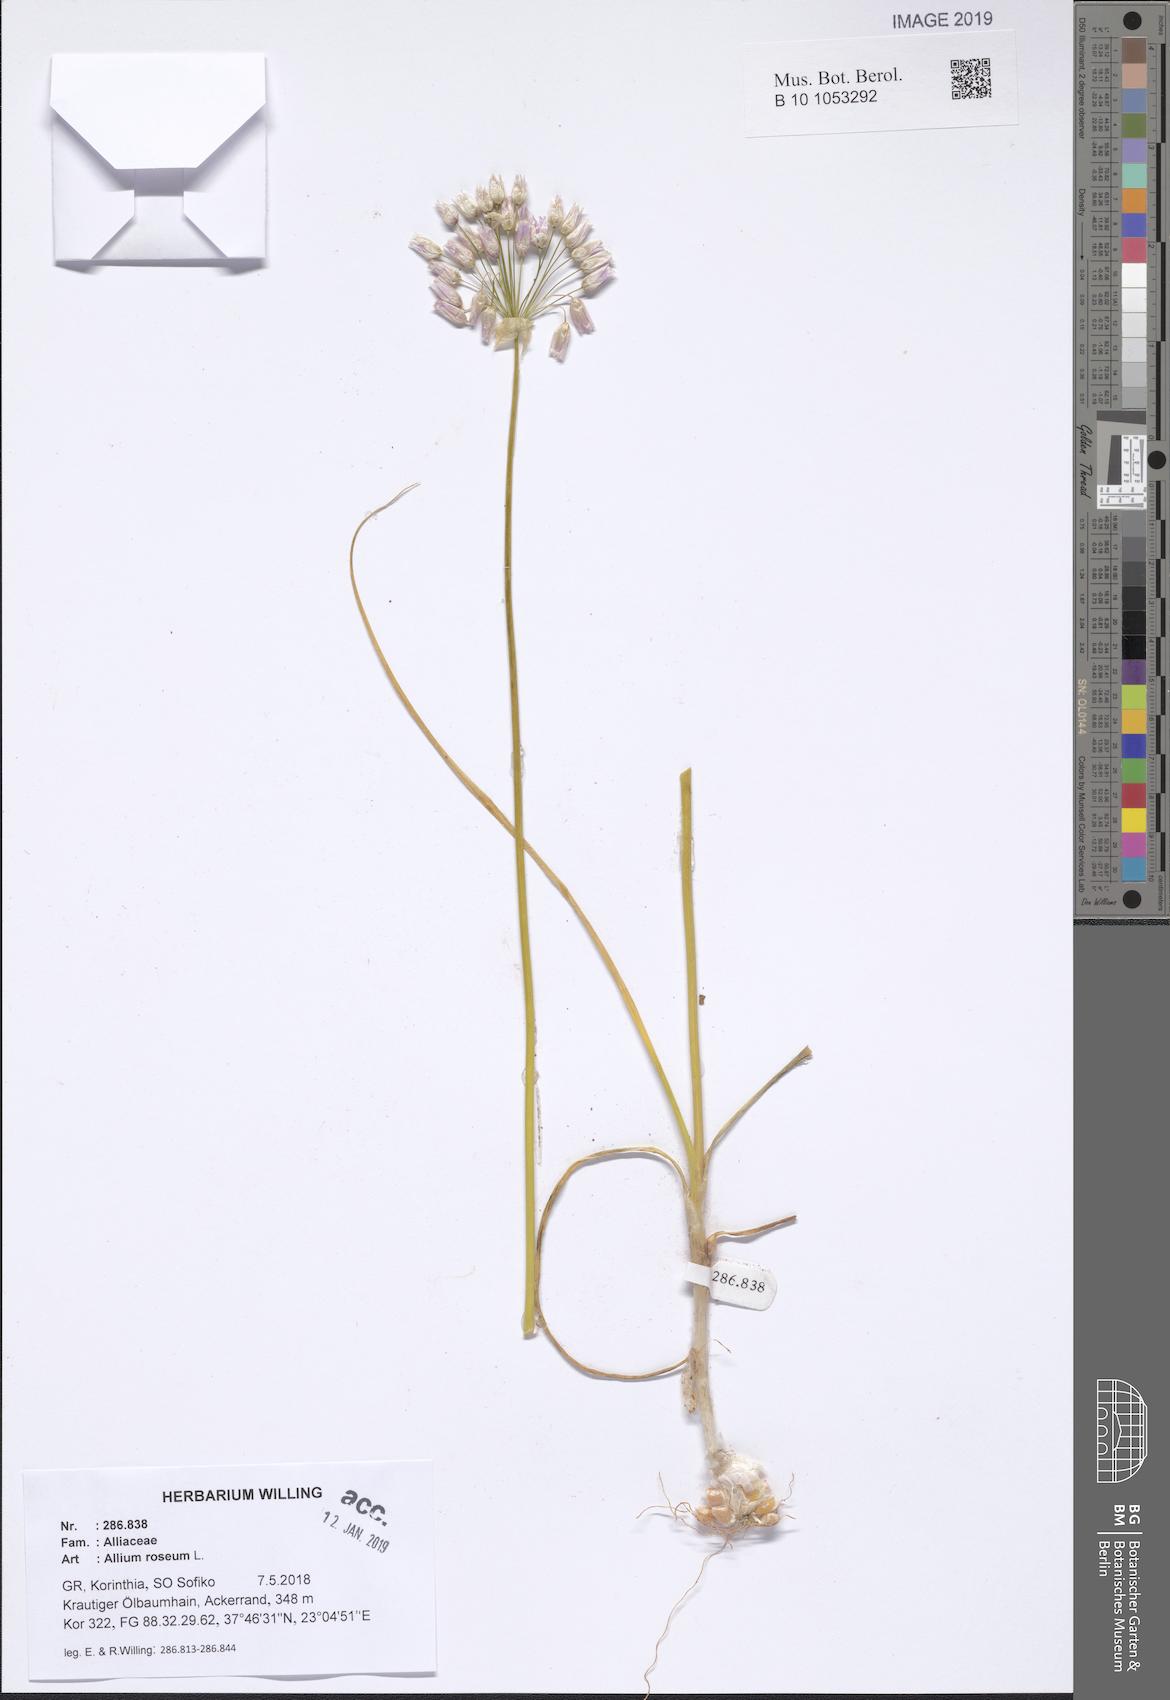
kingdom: Plantae
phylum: Tracheophyta
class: Liliopsida
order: Asparagales
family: Amaryllidaceae
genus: Allium
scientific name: Allium roseum
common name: Rosy garlic
